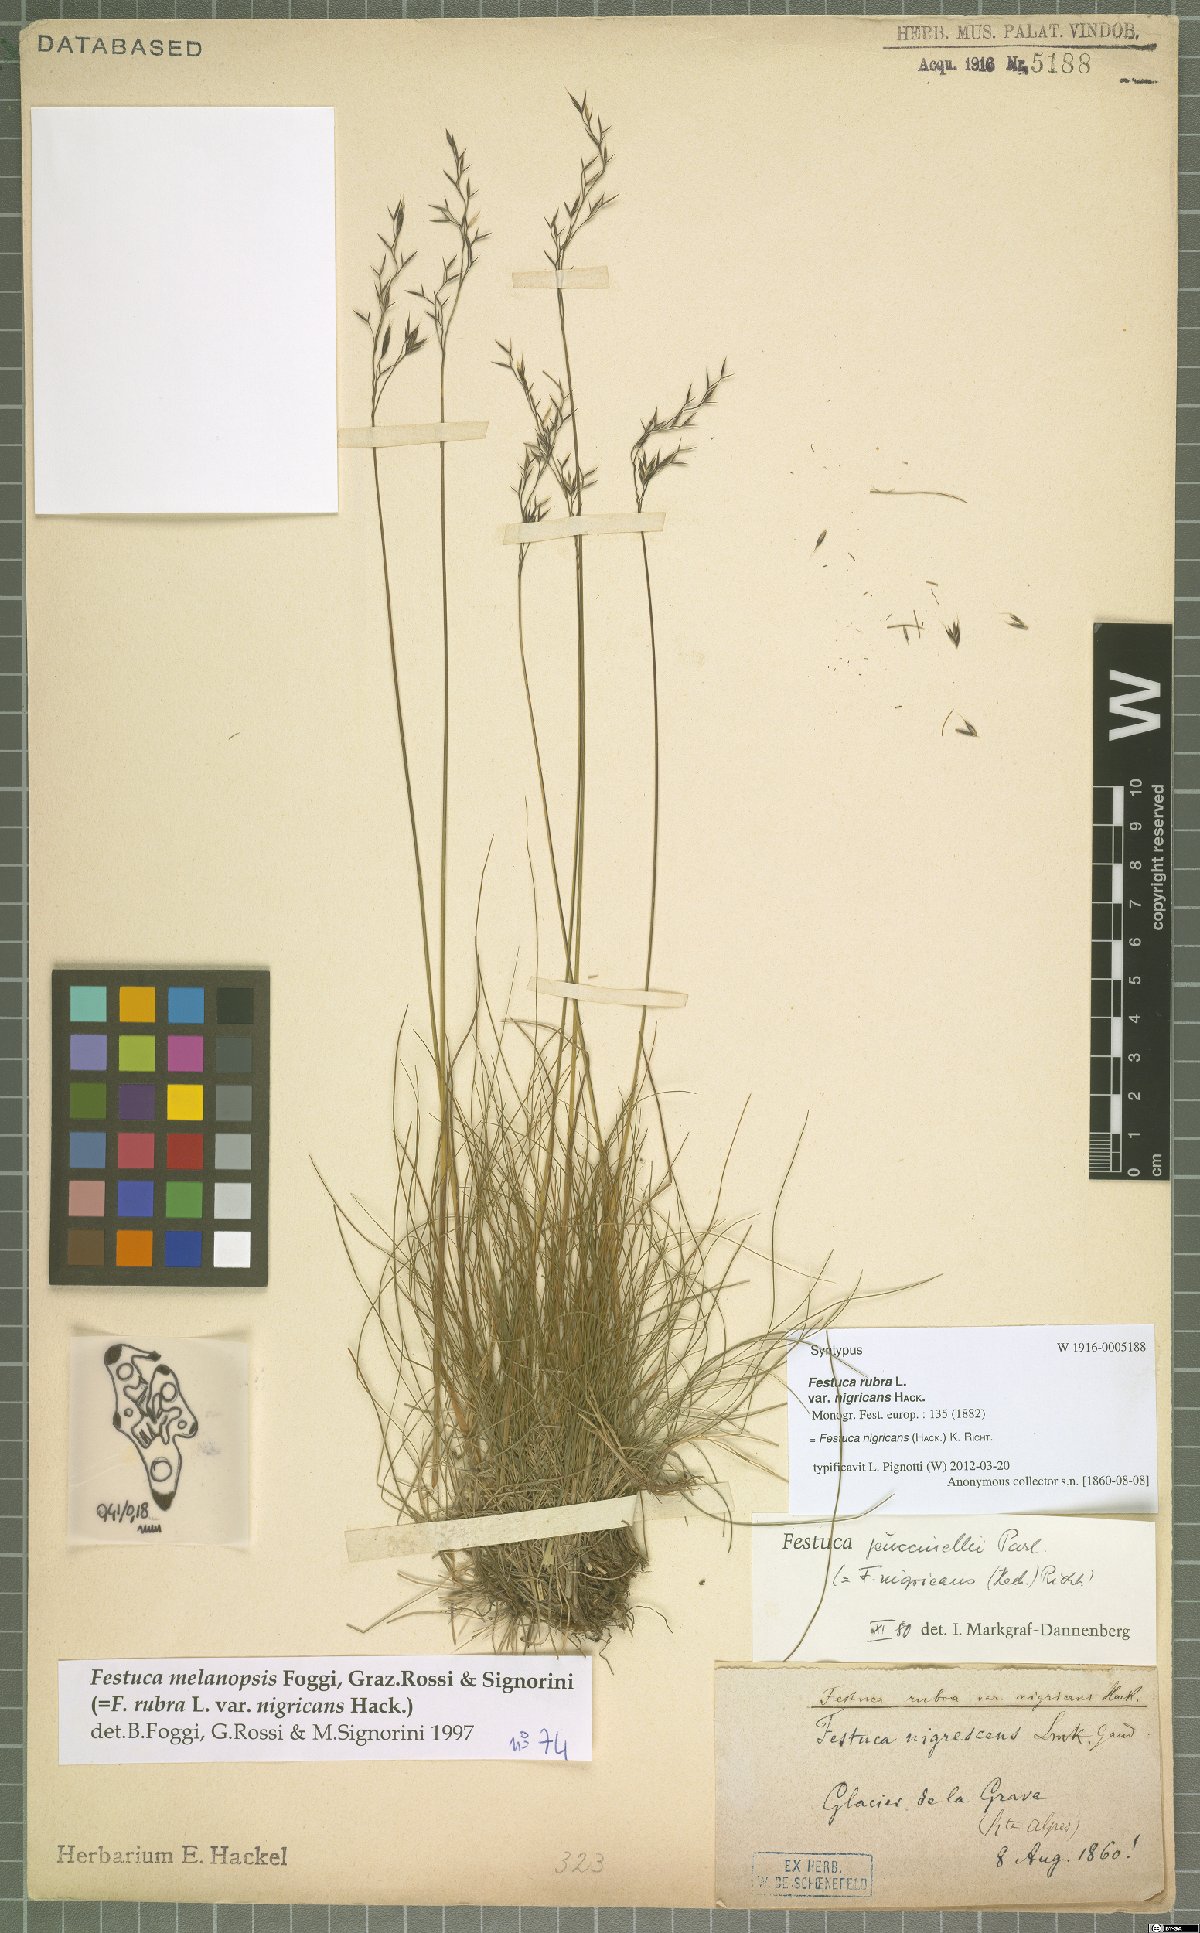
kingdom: Plantae
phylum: Tracheophyta
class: Liliopsida
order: Poales
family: Poaceae
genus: Festuca
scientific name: Festuca violacea
